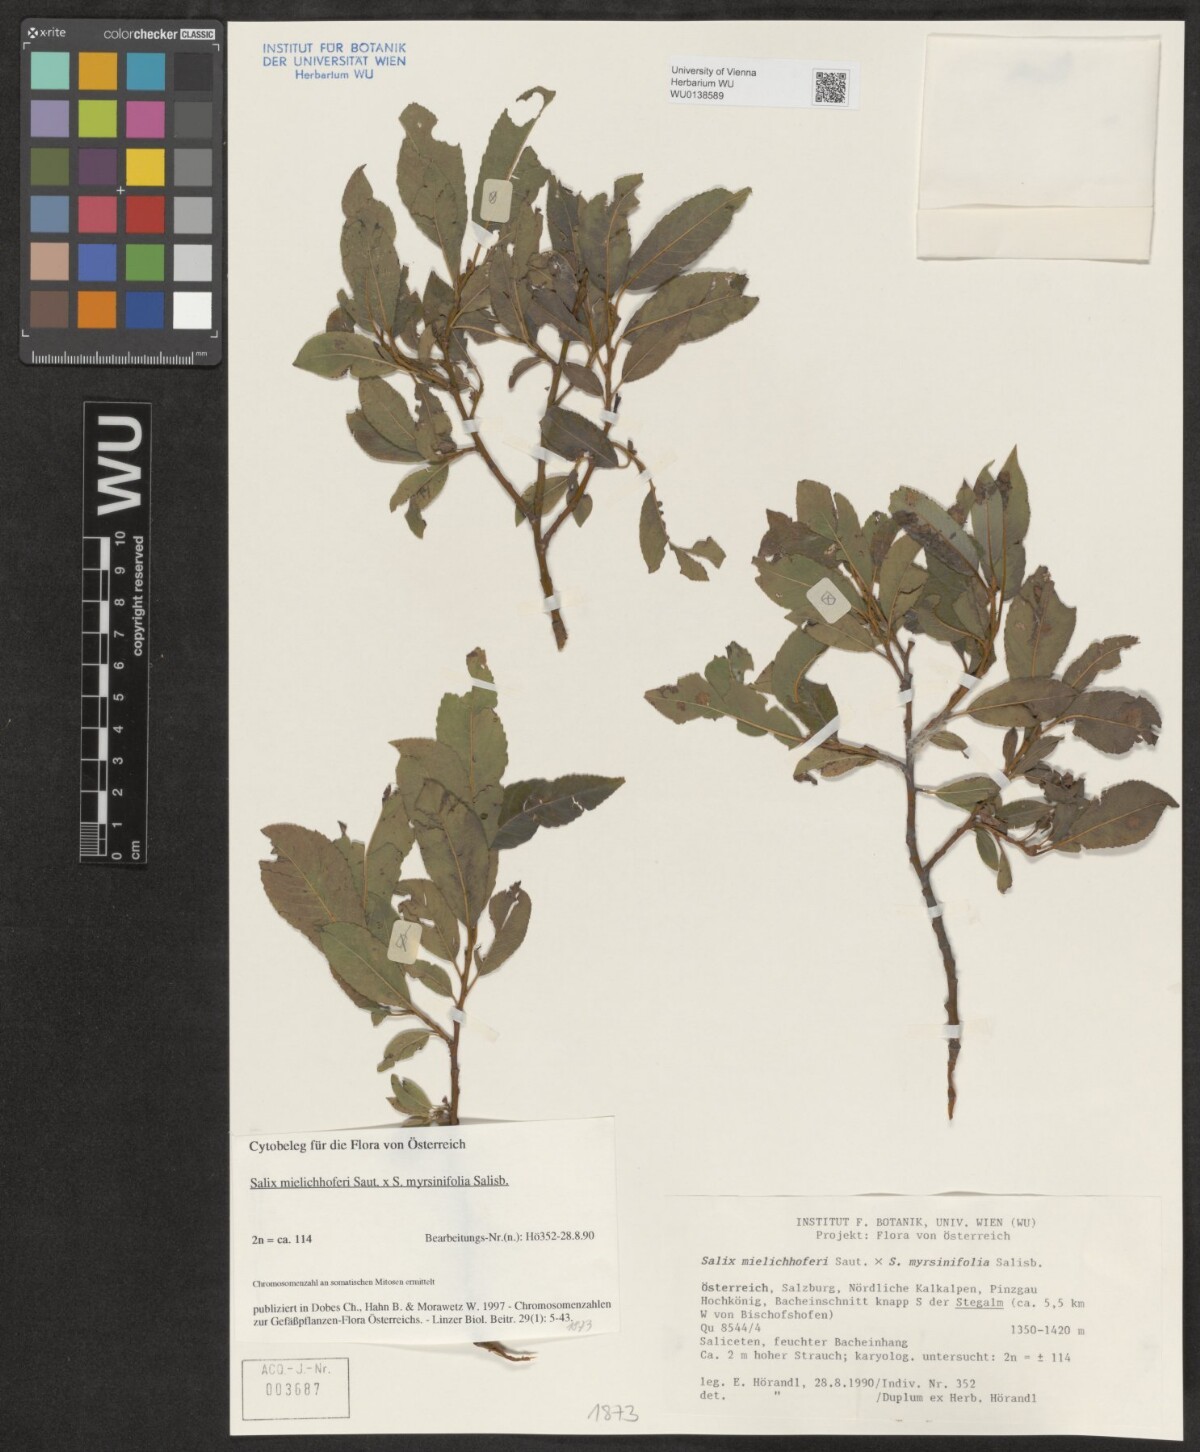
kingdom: Plantae
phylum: Tracheophyta
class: Magnoliopsida
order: Malpighiales
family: Salicaceae
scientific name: Salicaceae
